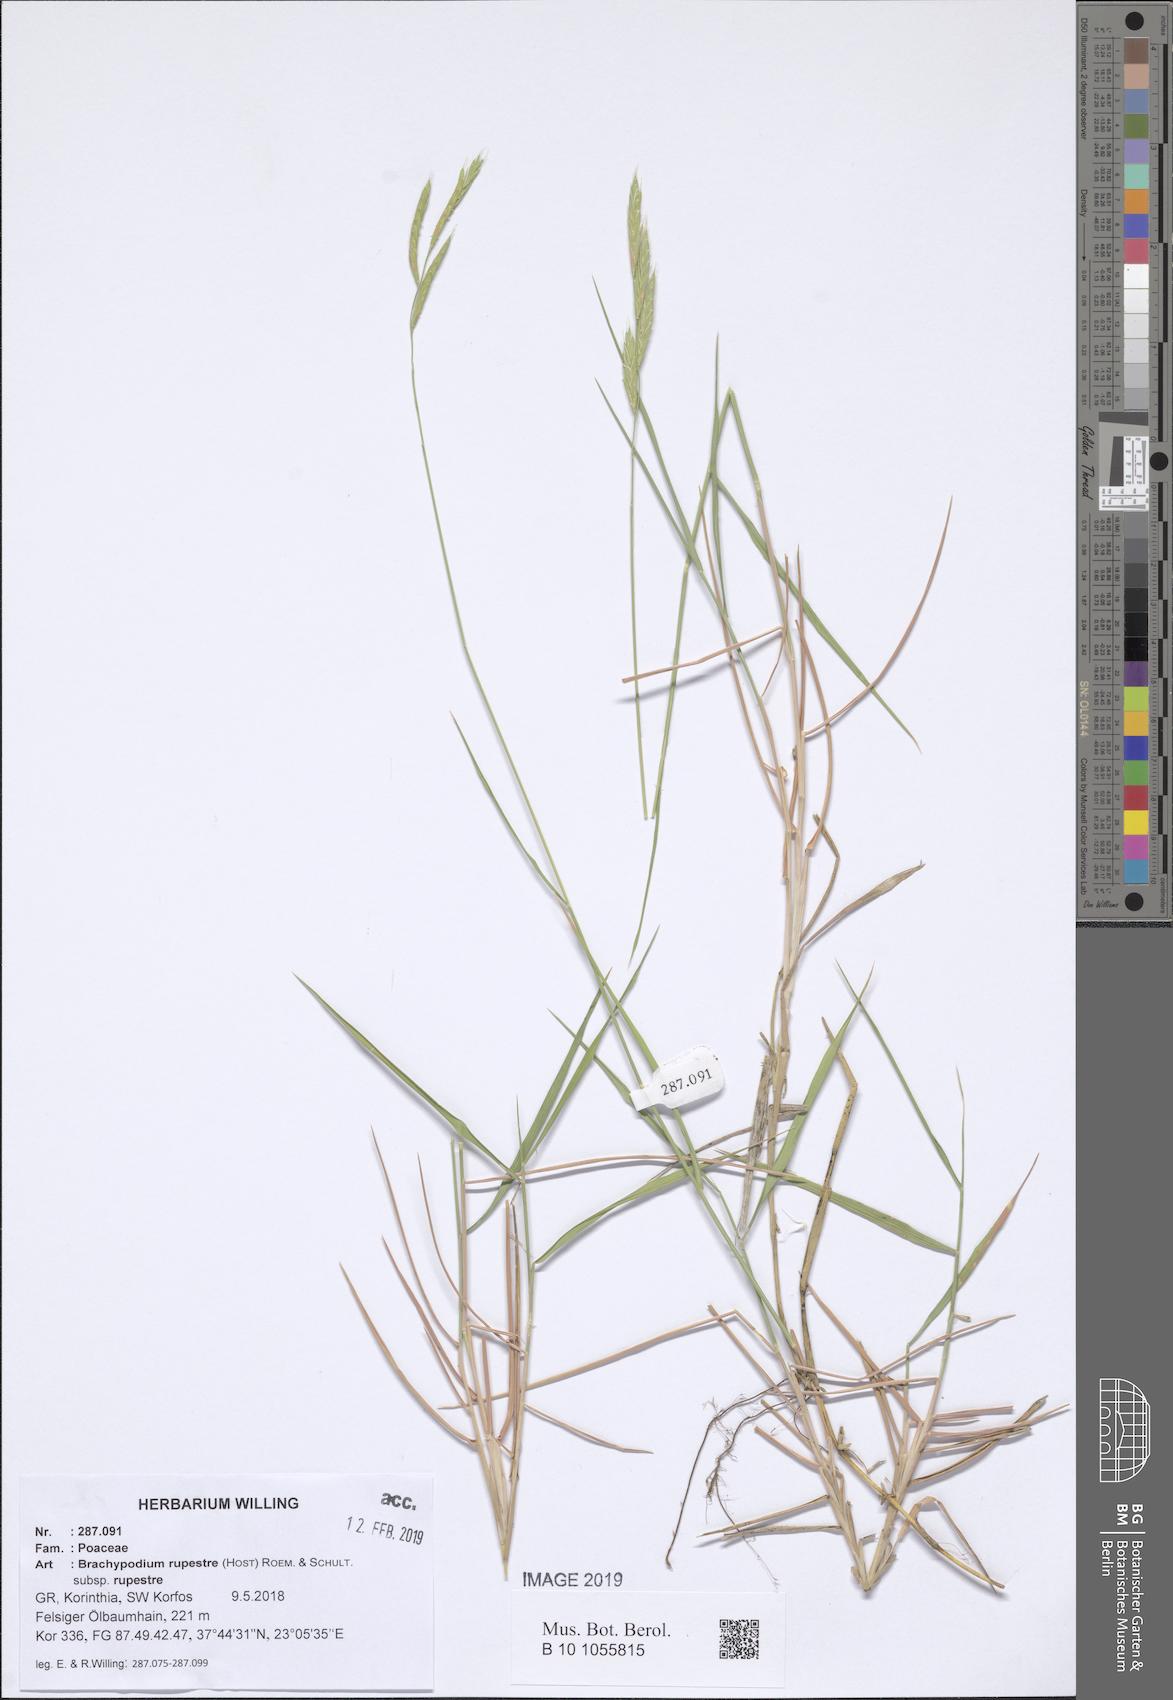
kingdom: Plantae
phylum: Tracheophyta
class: Liliopsida
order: Poales
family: Poaceae
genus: Brachypodium
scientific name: Brachypodium pinnatum
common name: Tor grass
